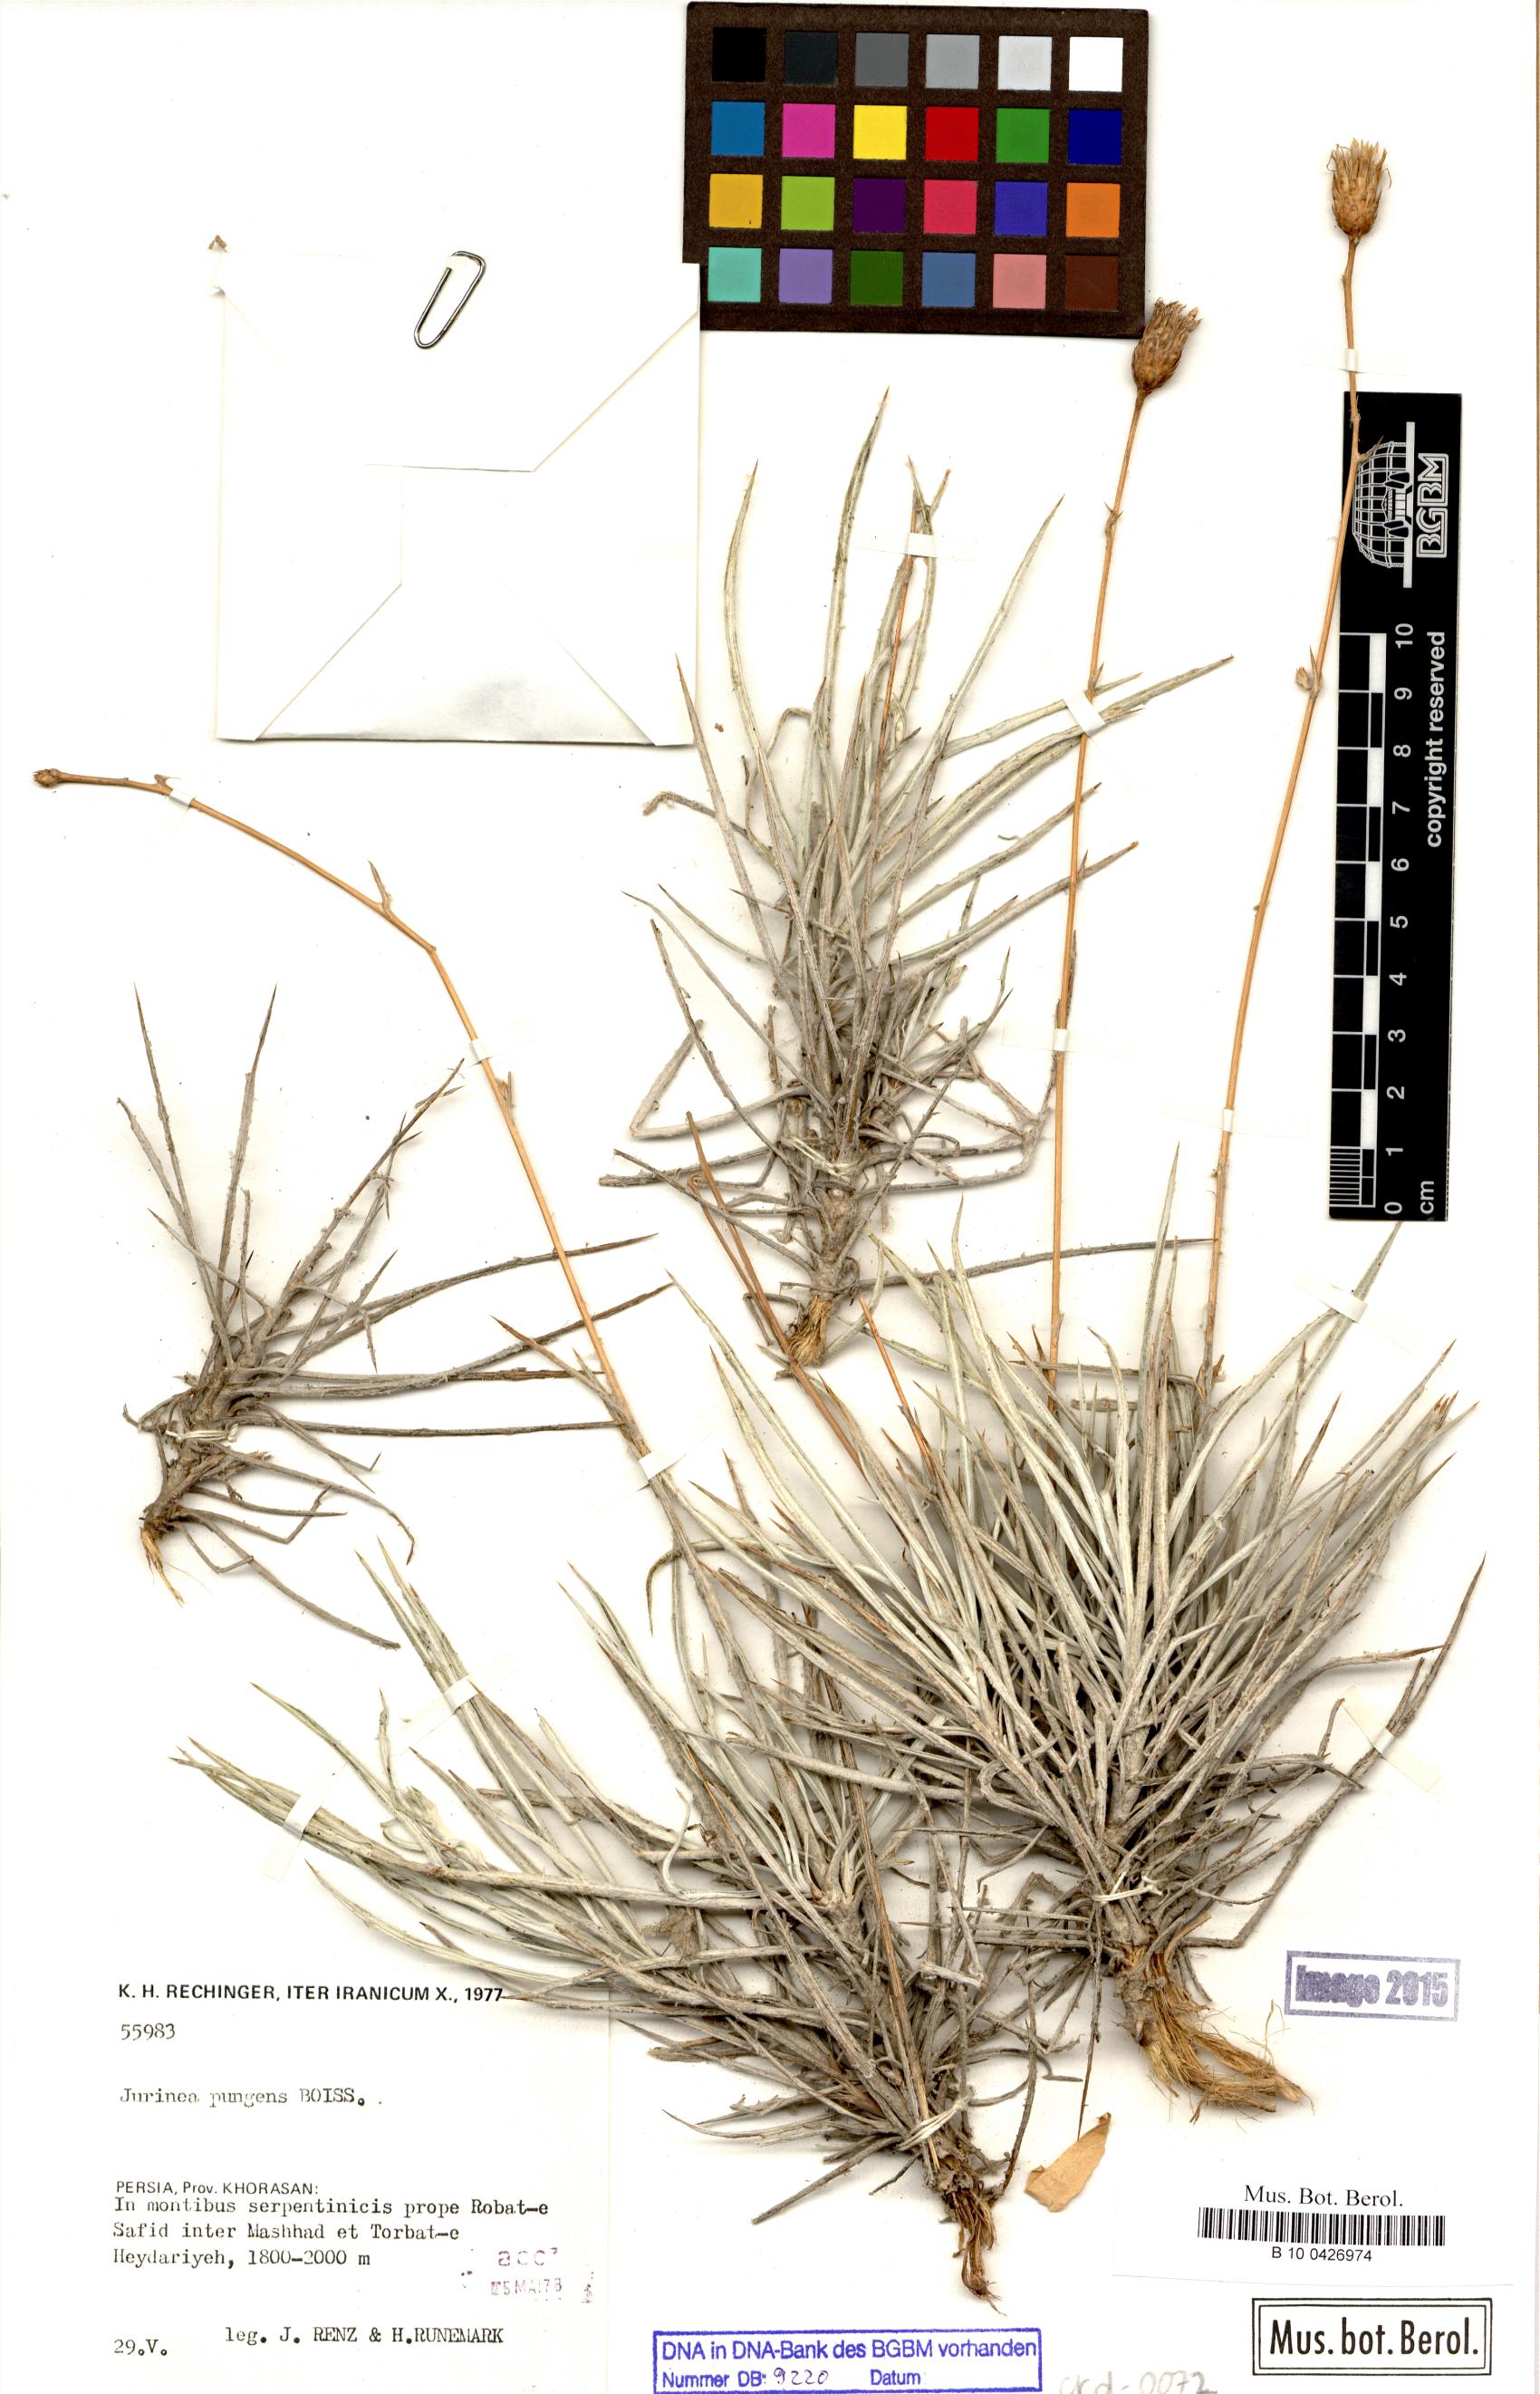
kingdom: Plantae
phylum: Tracheophyta
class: Magnoliopsida
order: Asterales
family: Asteraceae
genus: Cousinia
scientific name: Cousinia argentea
